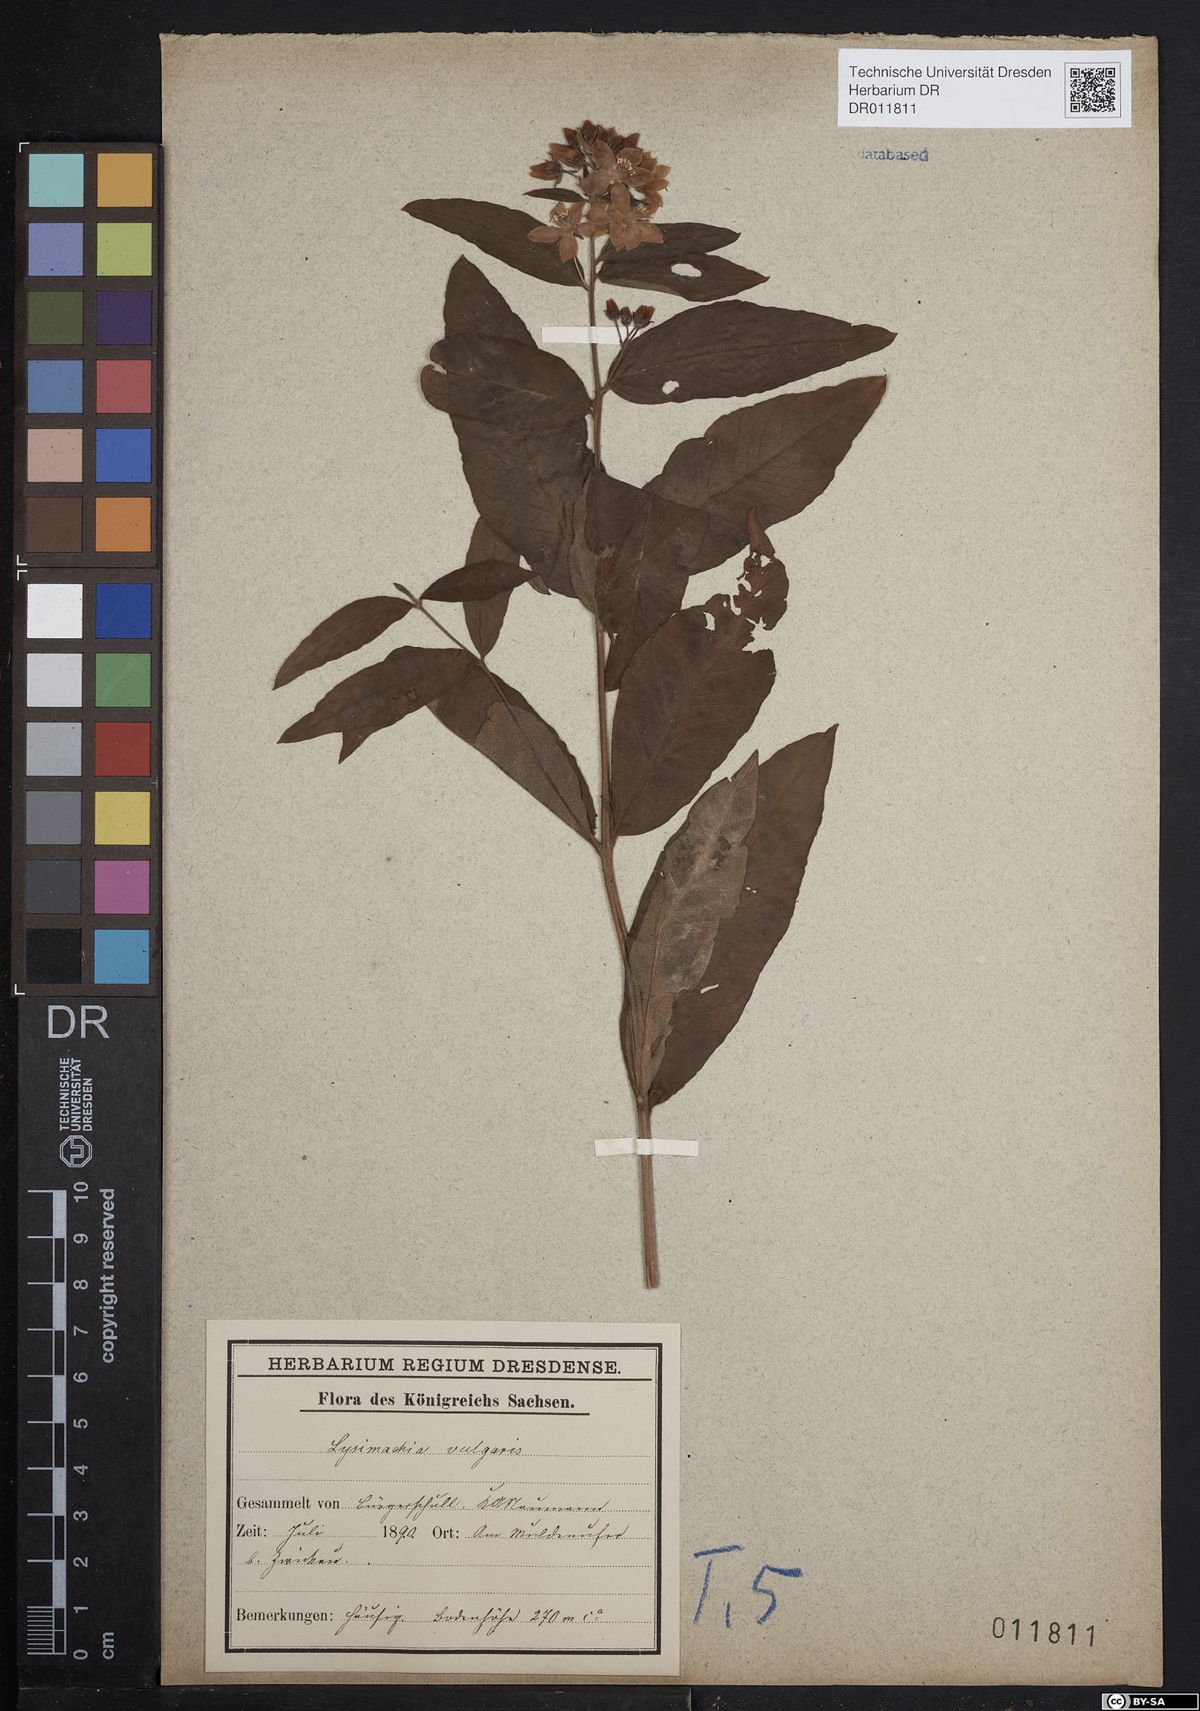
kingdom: Plantae
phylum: Tracheophyta
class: Magnoliopsida
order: Ericales
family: Primulaceae
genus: Lysimachia
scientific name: Lysimachia vulgaris
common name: Yellow loosestrife
